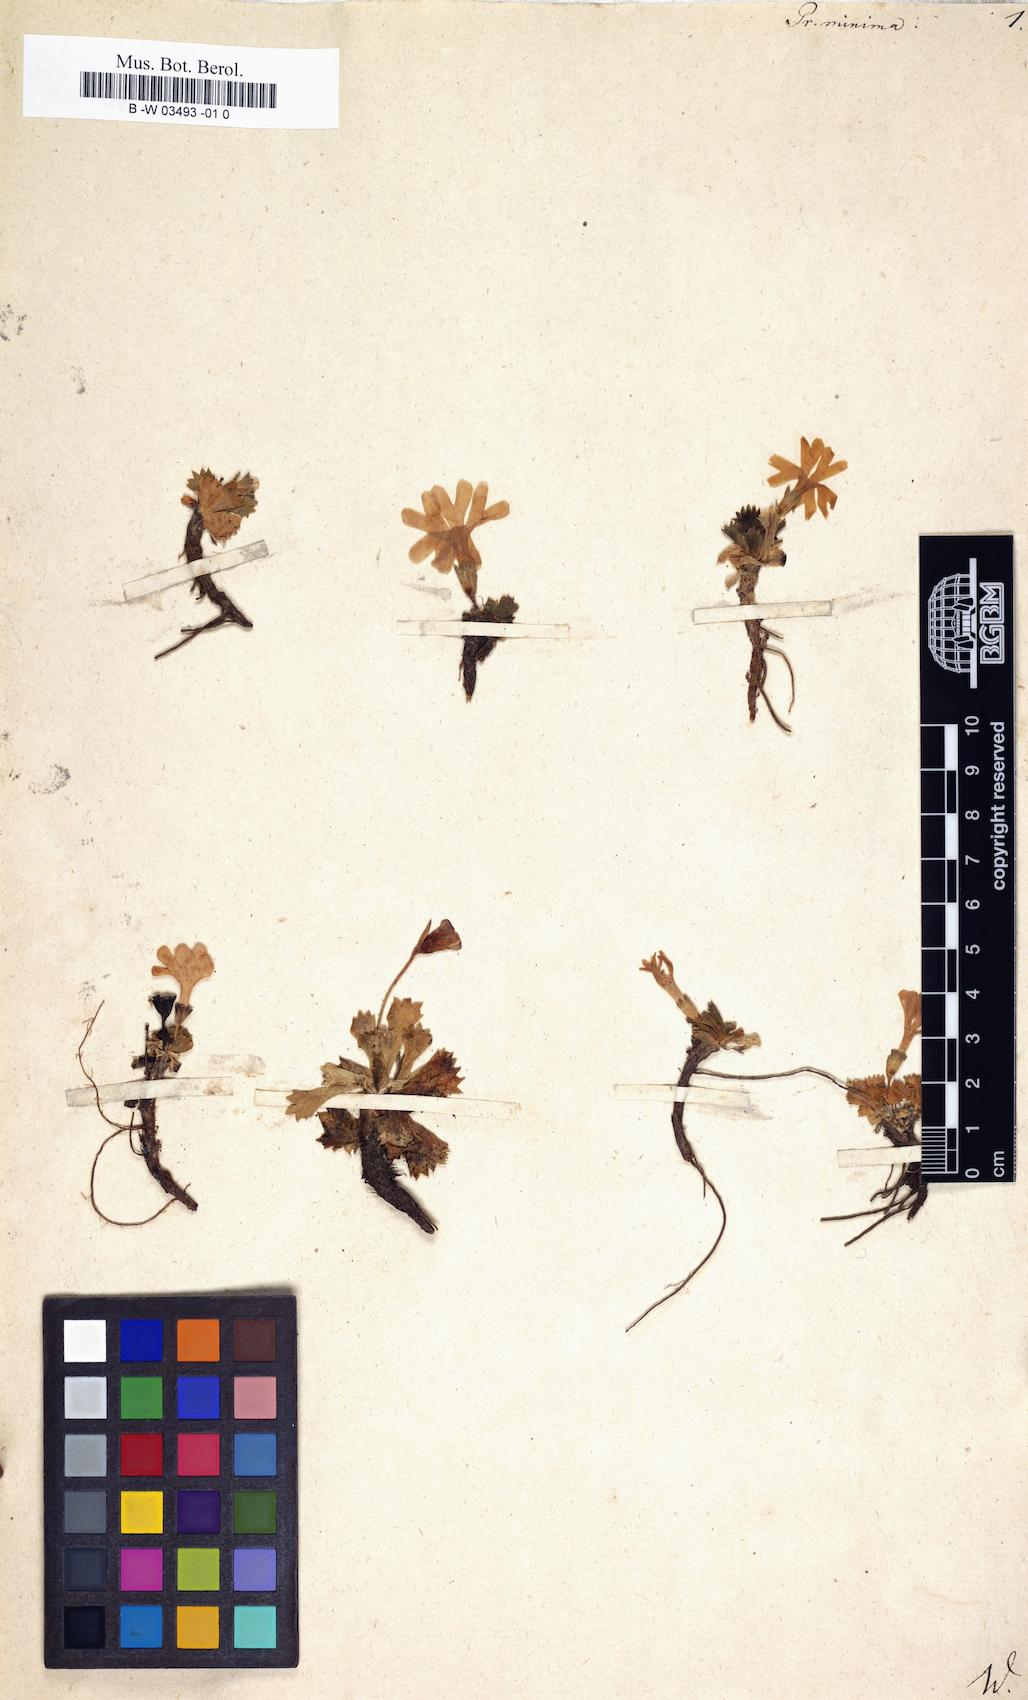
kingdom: Plantae
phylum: Tracheophyta
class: Magnoliopsida
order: Ericales
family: Primulaceae
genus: Primula
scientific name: Primula minima
